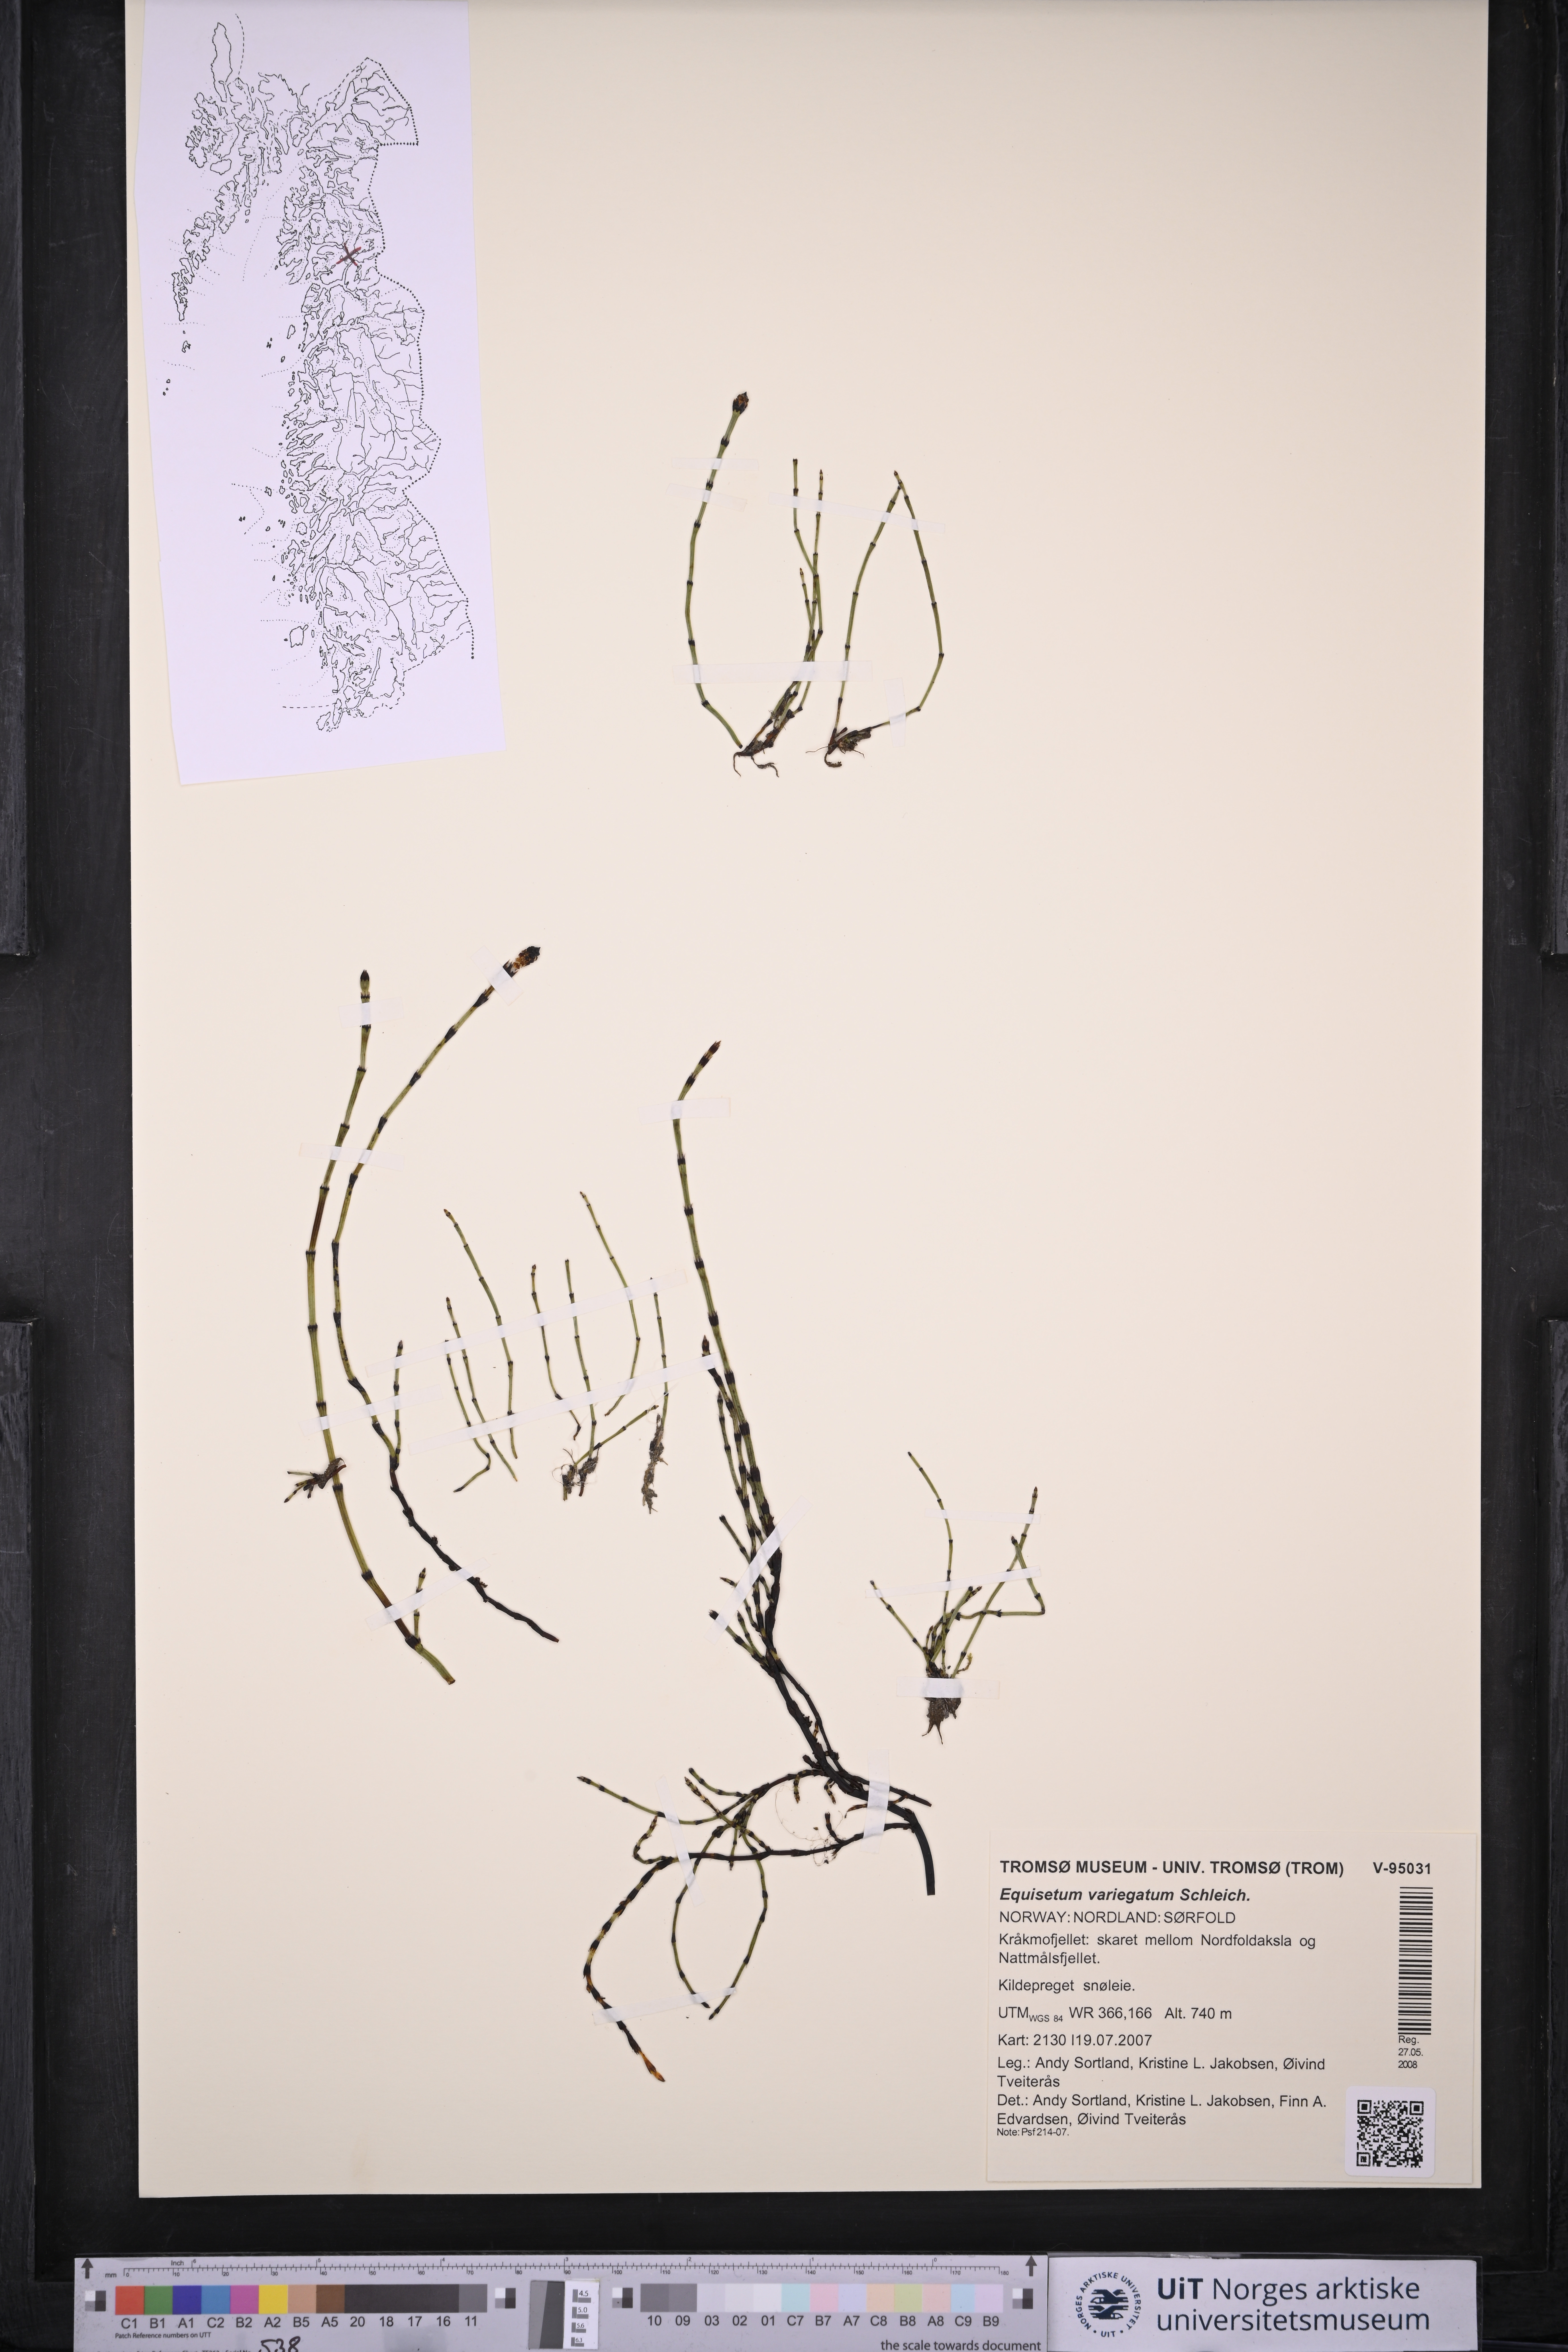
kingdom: Plantae
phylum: Tracheophyta
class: Polypodiopsida
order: Equisetales
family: Equisetaceae
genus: Equisetum
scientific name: Equisetum variegatum
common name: Variegated horsetail
